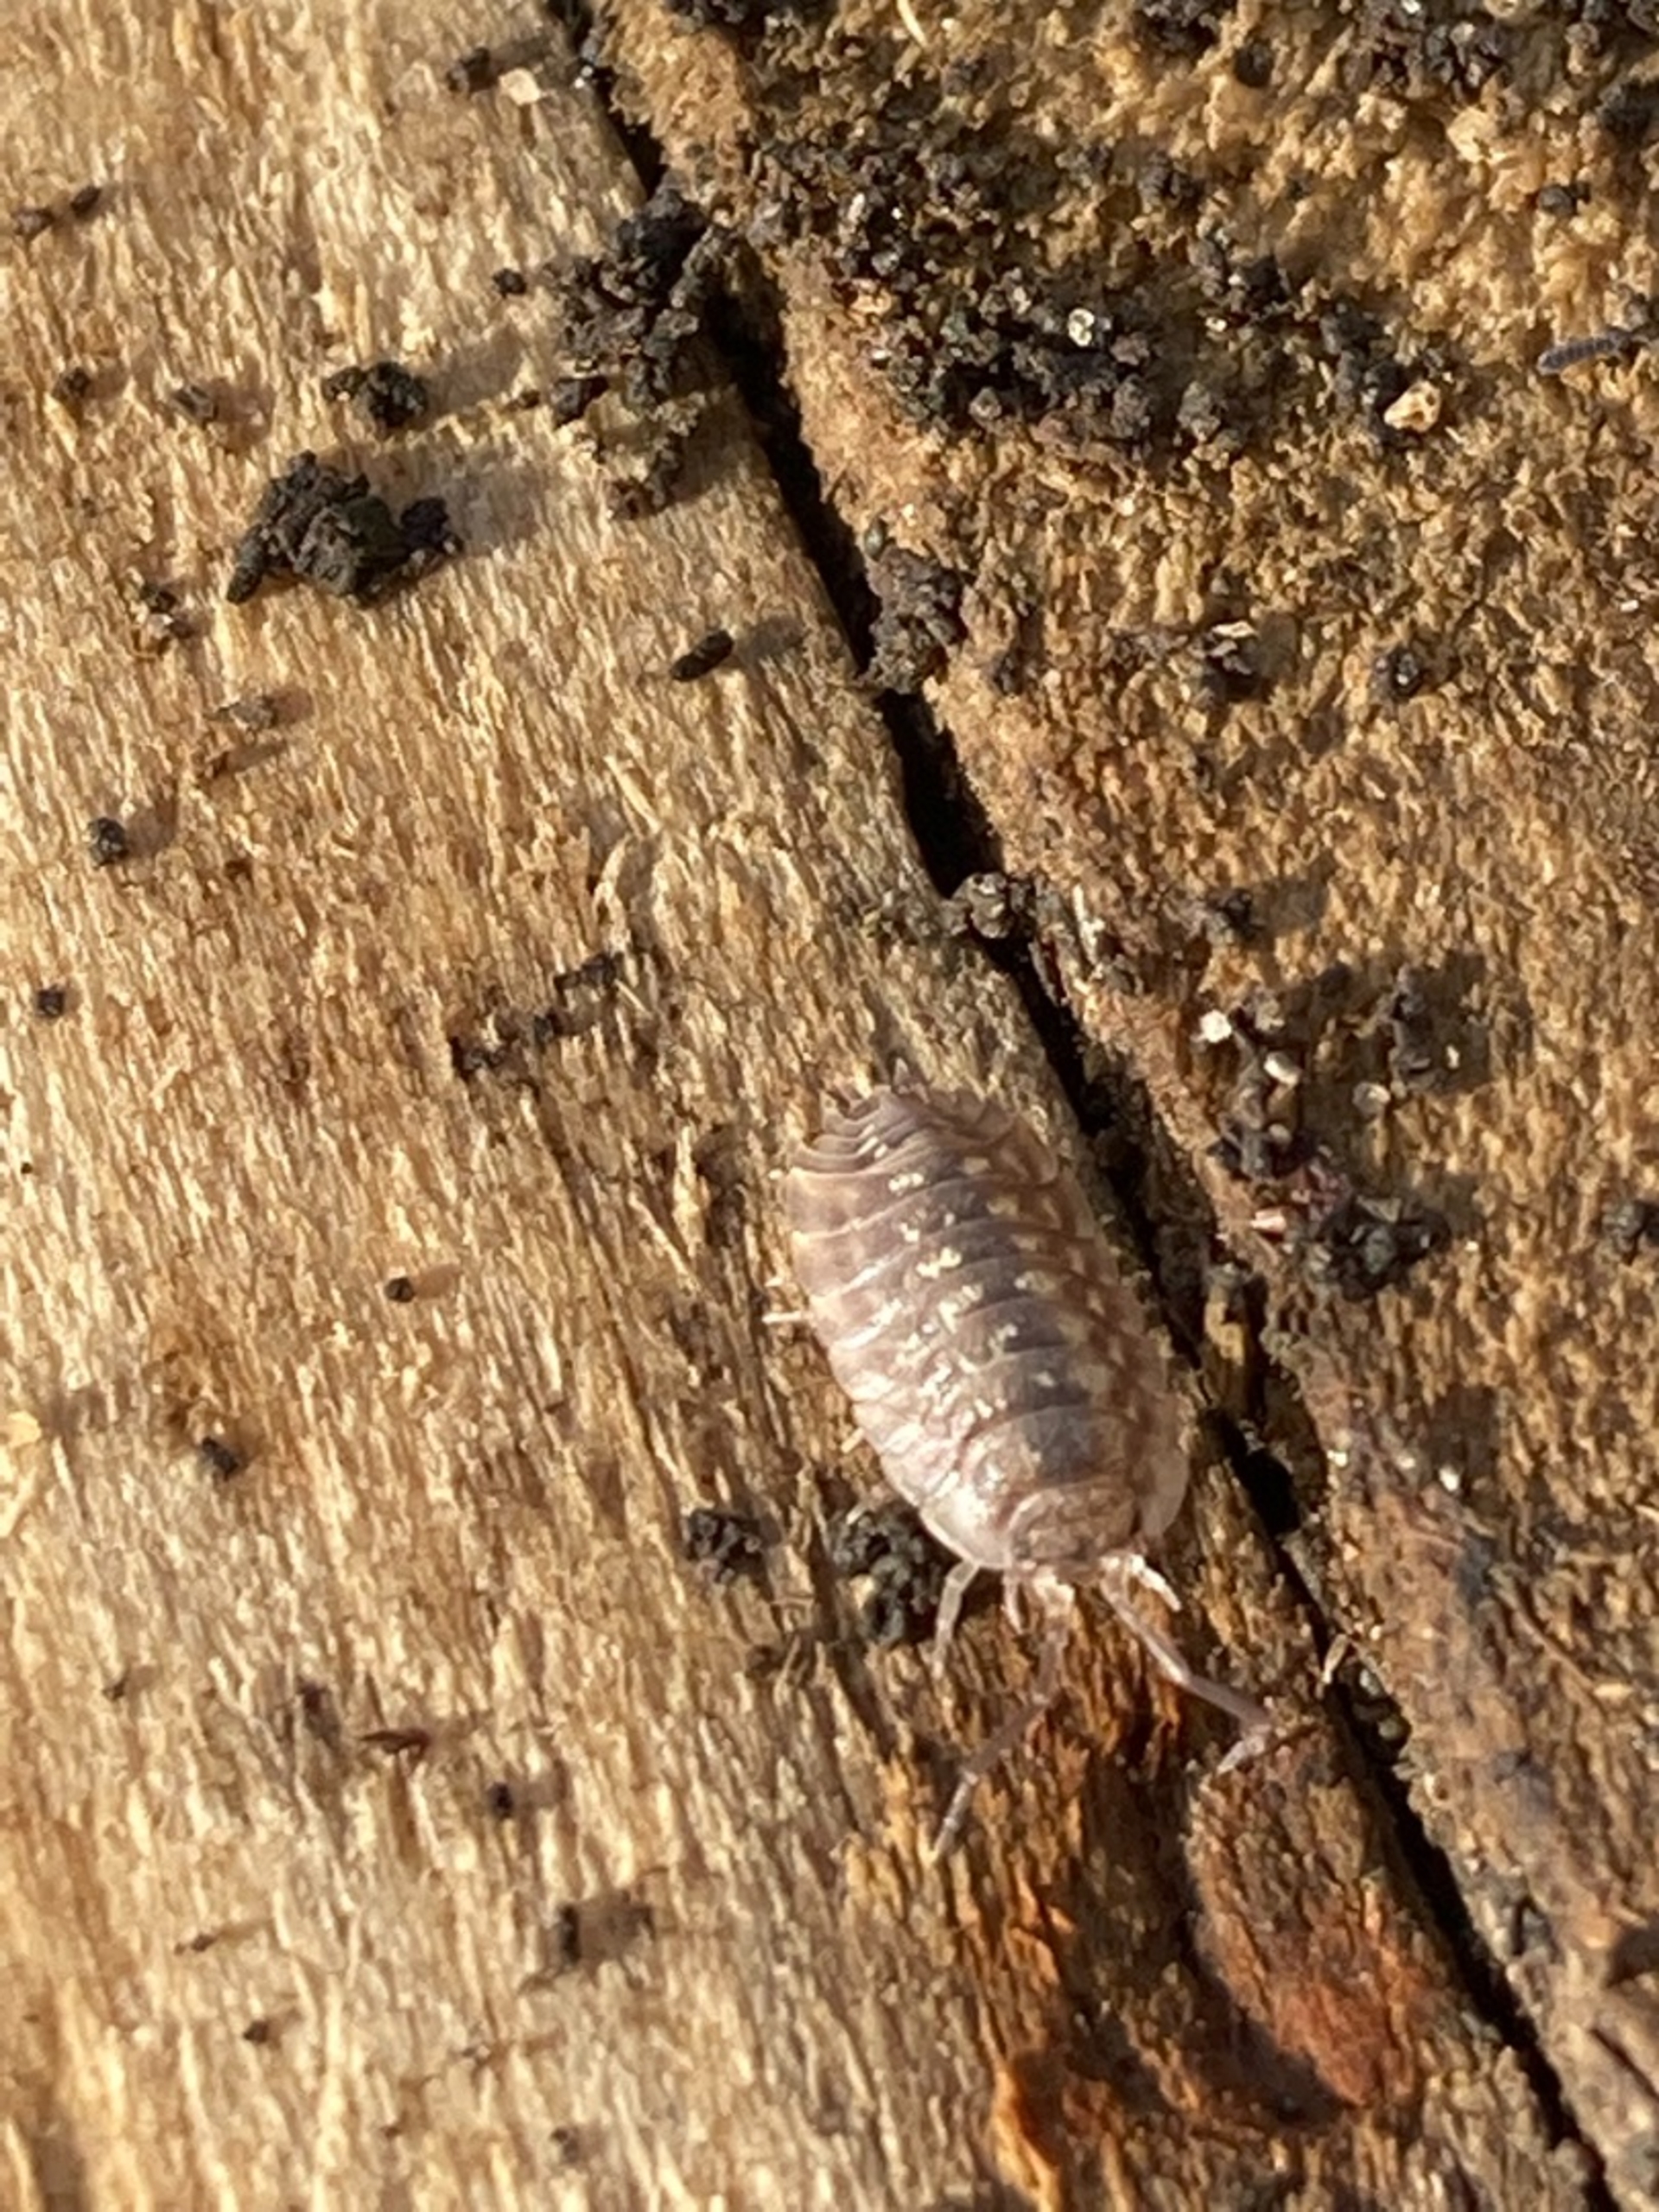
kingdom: Animalia
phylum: Arthropoda
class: Malacostraca
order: Isopoda
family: Oniscidae
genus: Oniscus
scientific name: Oniscus asellus
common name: Glat bænkebider
